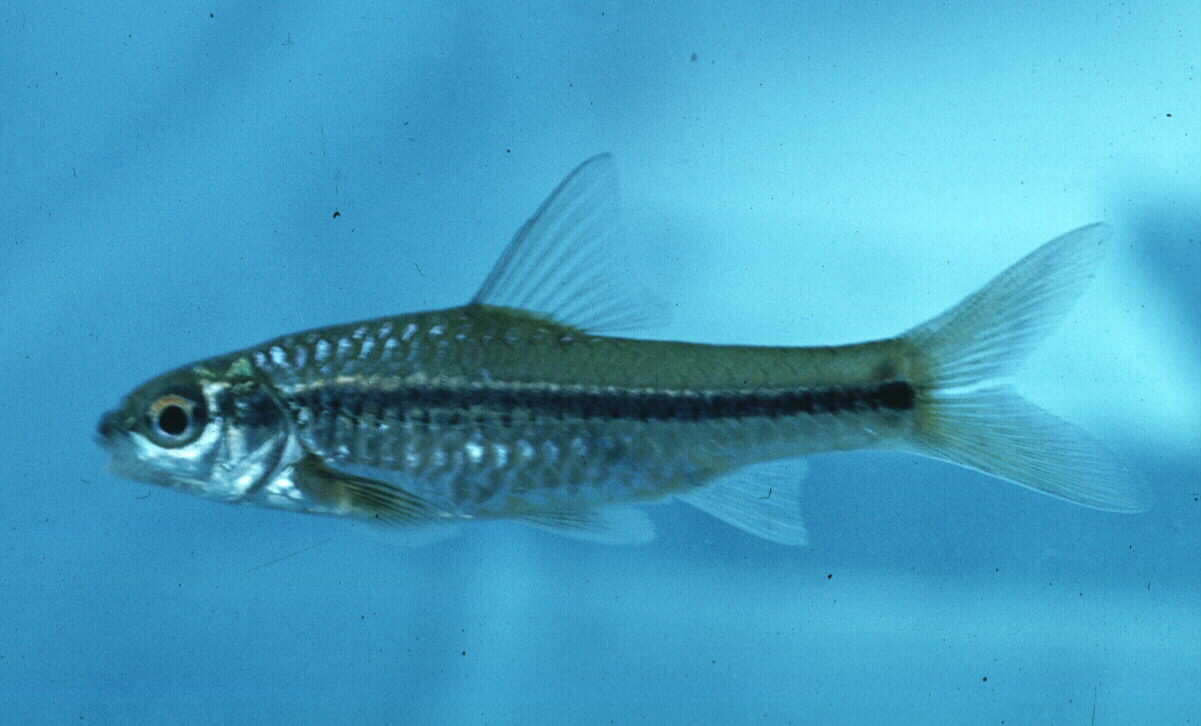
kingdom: Animalia
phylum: Chordata
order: Cypriniformes
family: Cyprinidae
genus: Enteromius
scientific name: Enteromius annectens
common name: Broadstriped barb
